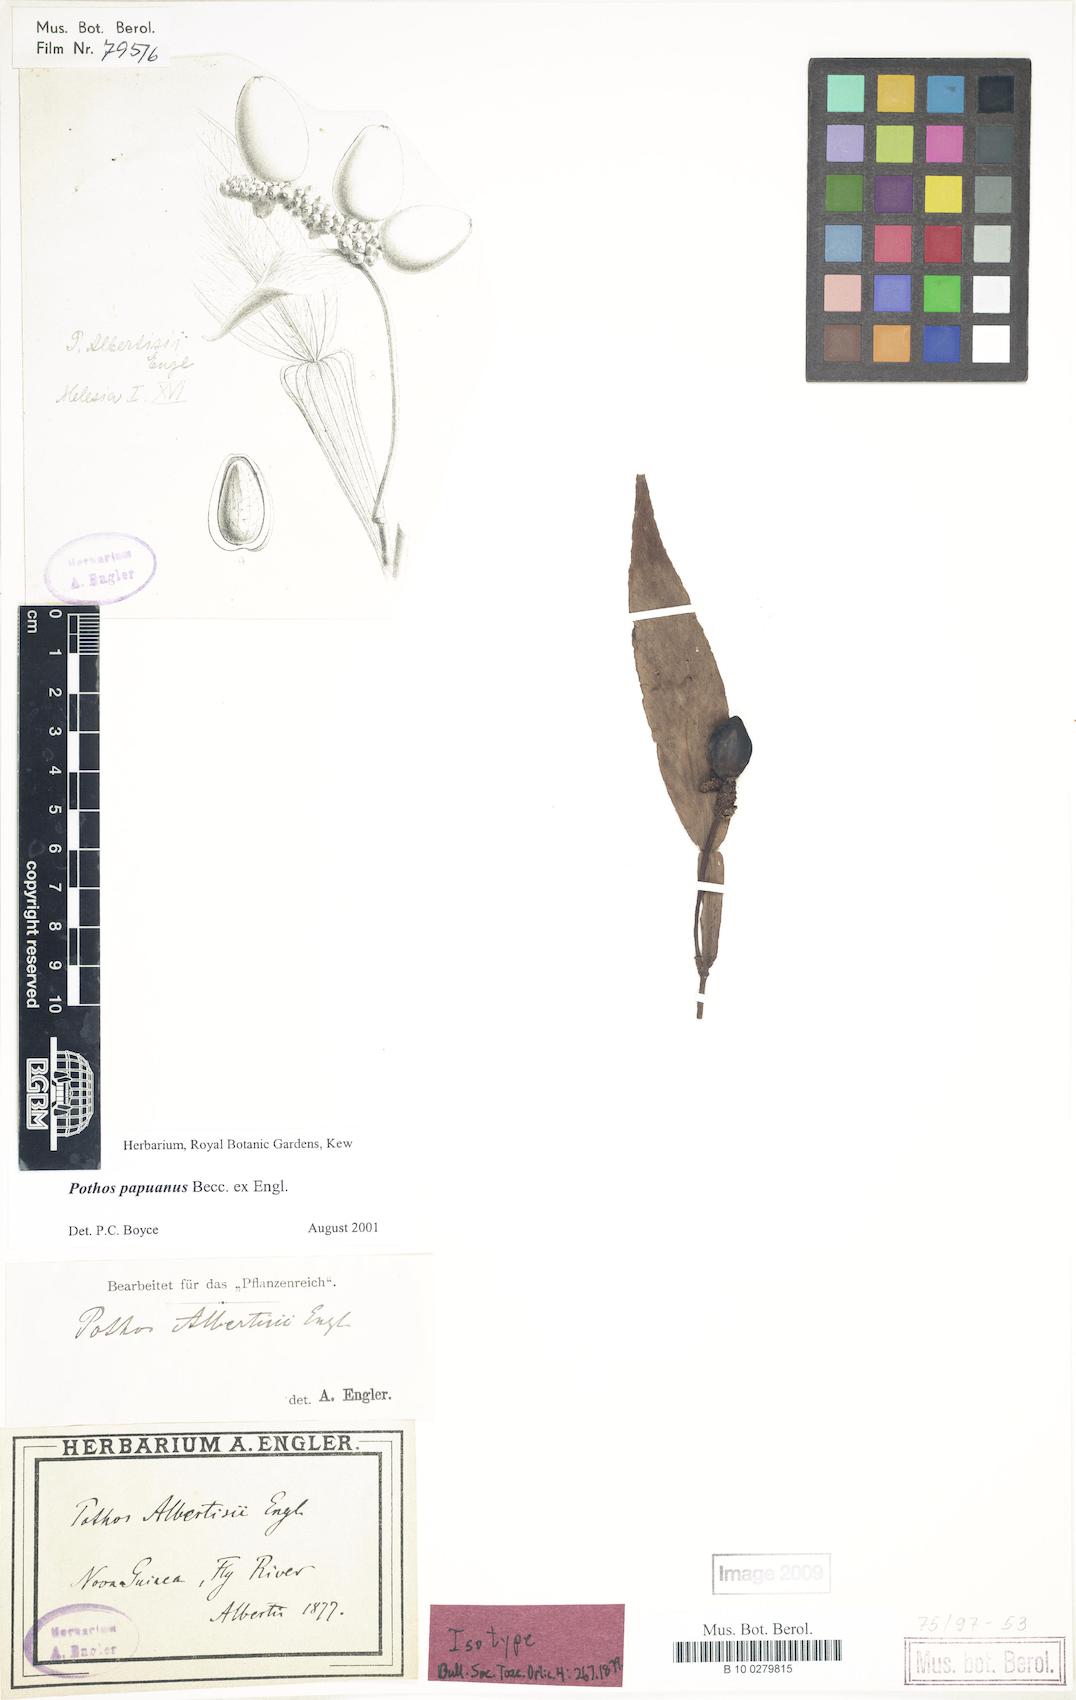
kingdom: Plantae
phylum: Tracheophyta
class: Liliopsida
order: Alismatales
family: Araceae
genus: Pothos
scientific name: Pothos papuanus
